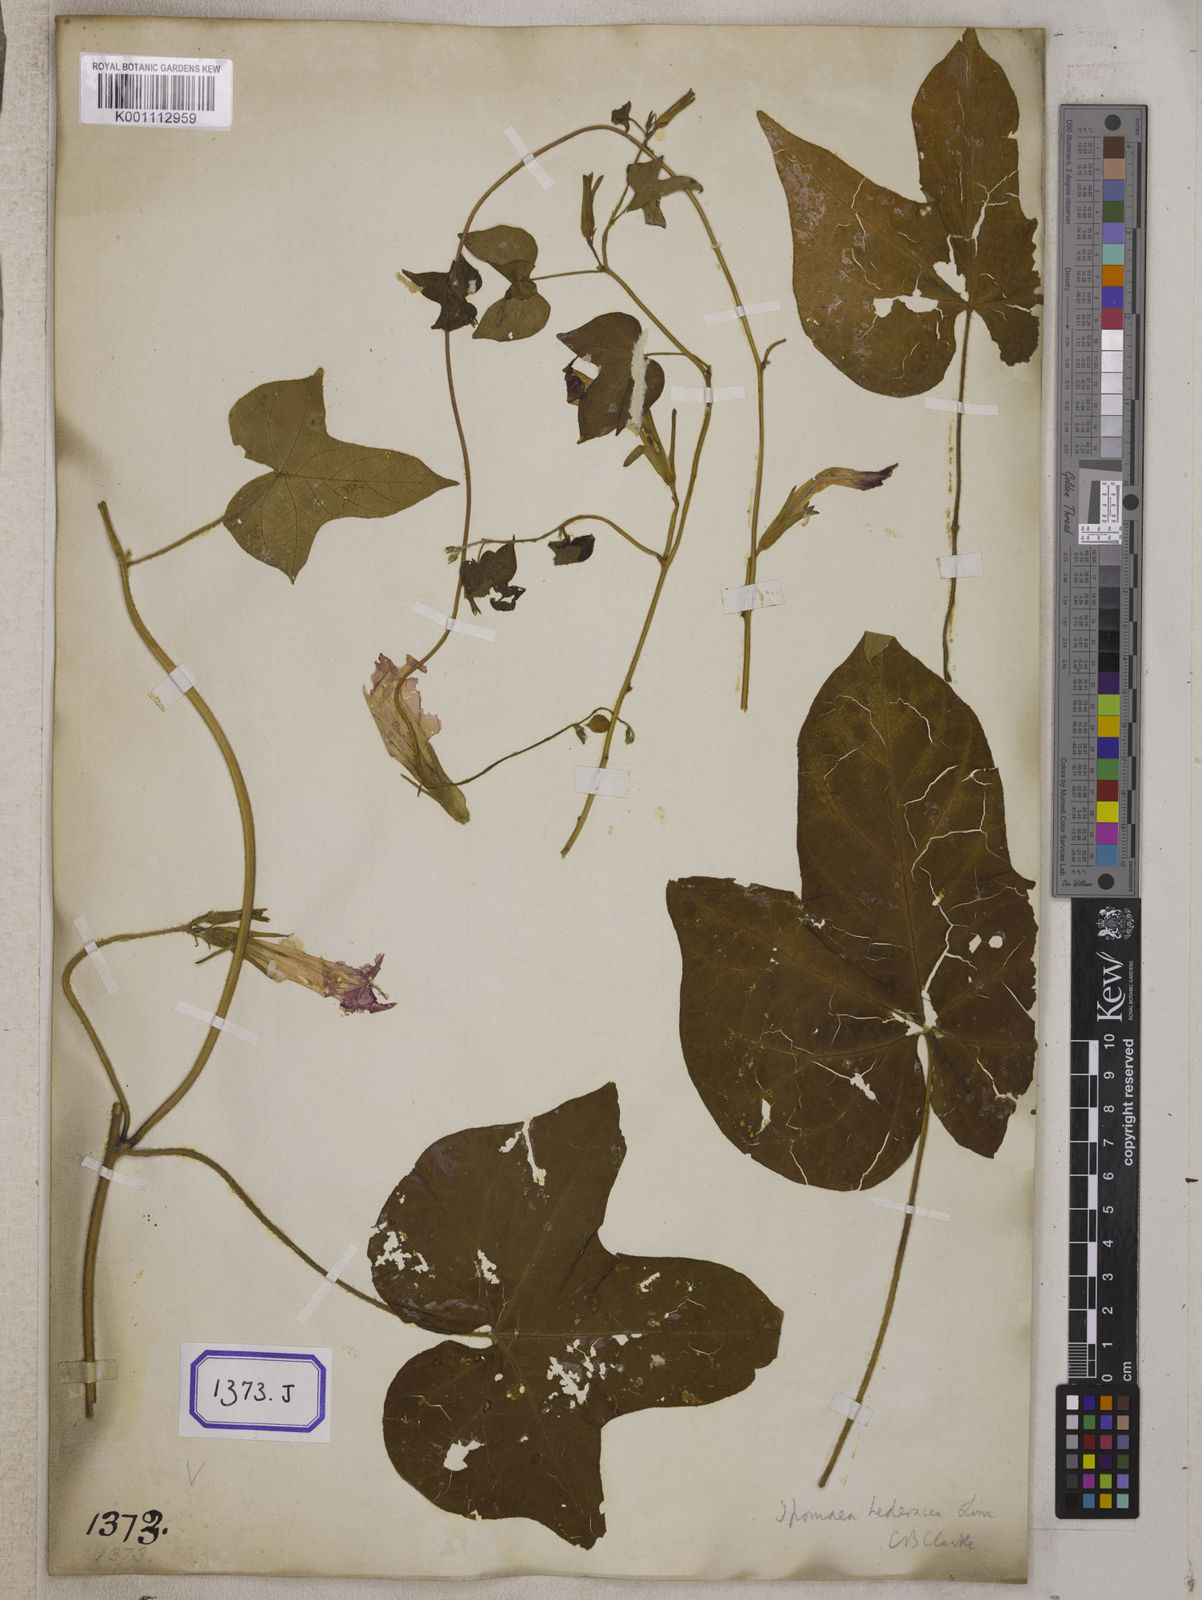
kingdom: Plantae
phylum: Tracheophyta
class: Magnoliopsida
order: Solanales
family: Convolvulaceae
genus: Ipomoea
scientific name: Ipomoea nil
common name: Japanese morning-glory
